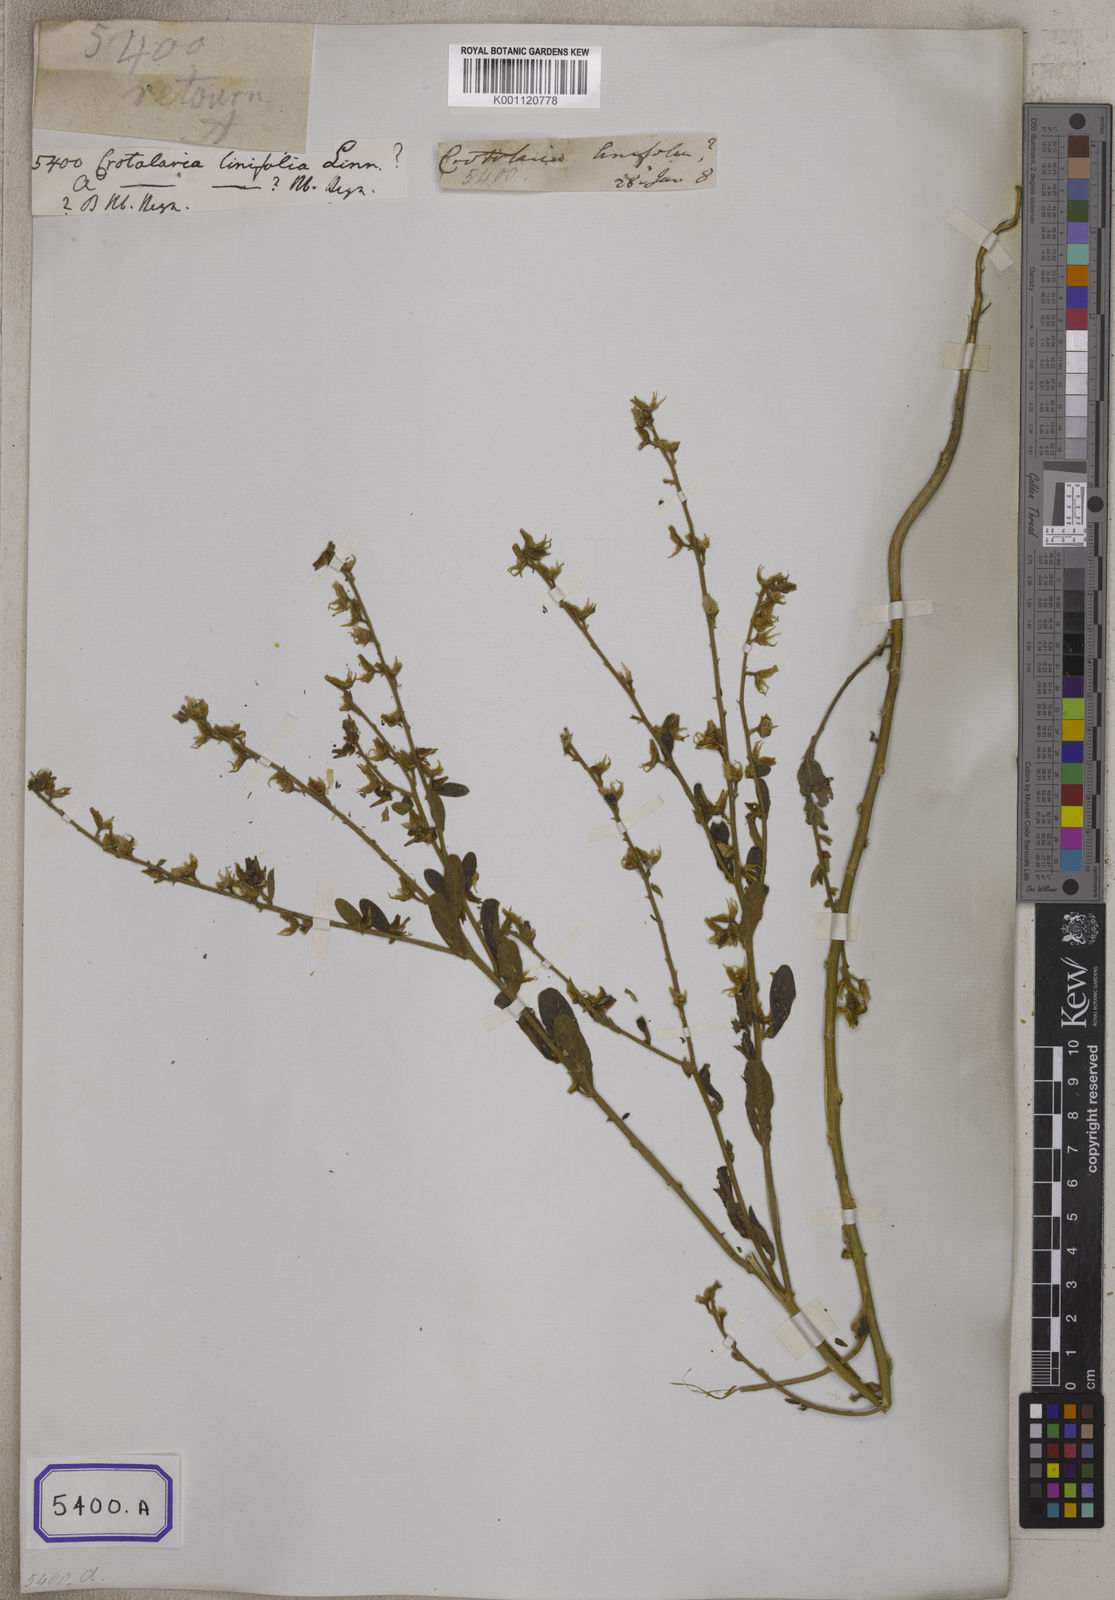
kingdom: Plantae
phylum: Tracheophyta
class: Magnoliopsida
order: Fabales
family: Fabaceae
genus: Crotalaria
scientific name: Crotalaria linifolia
